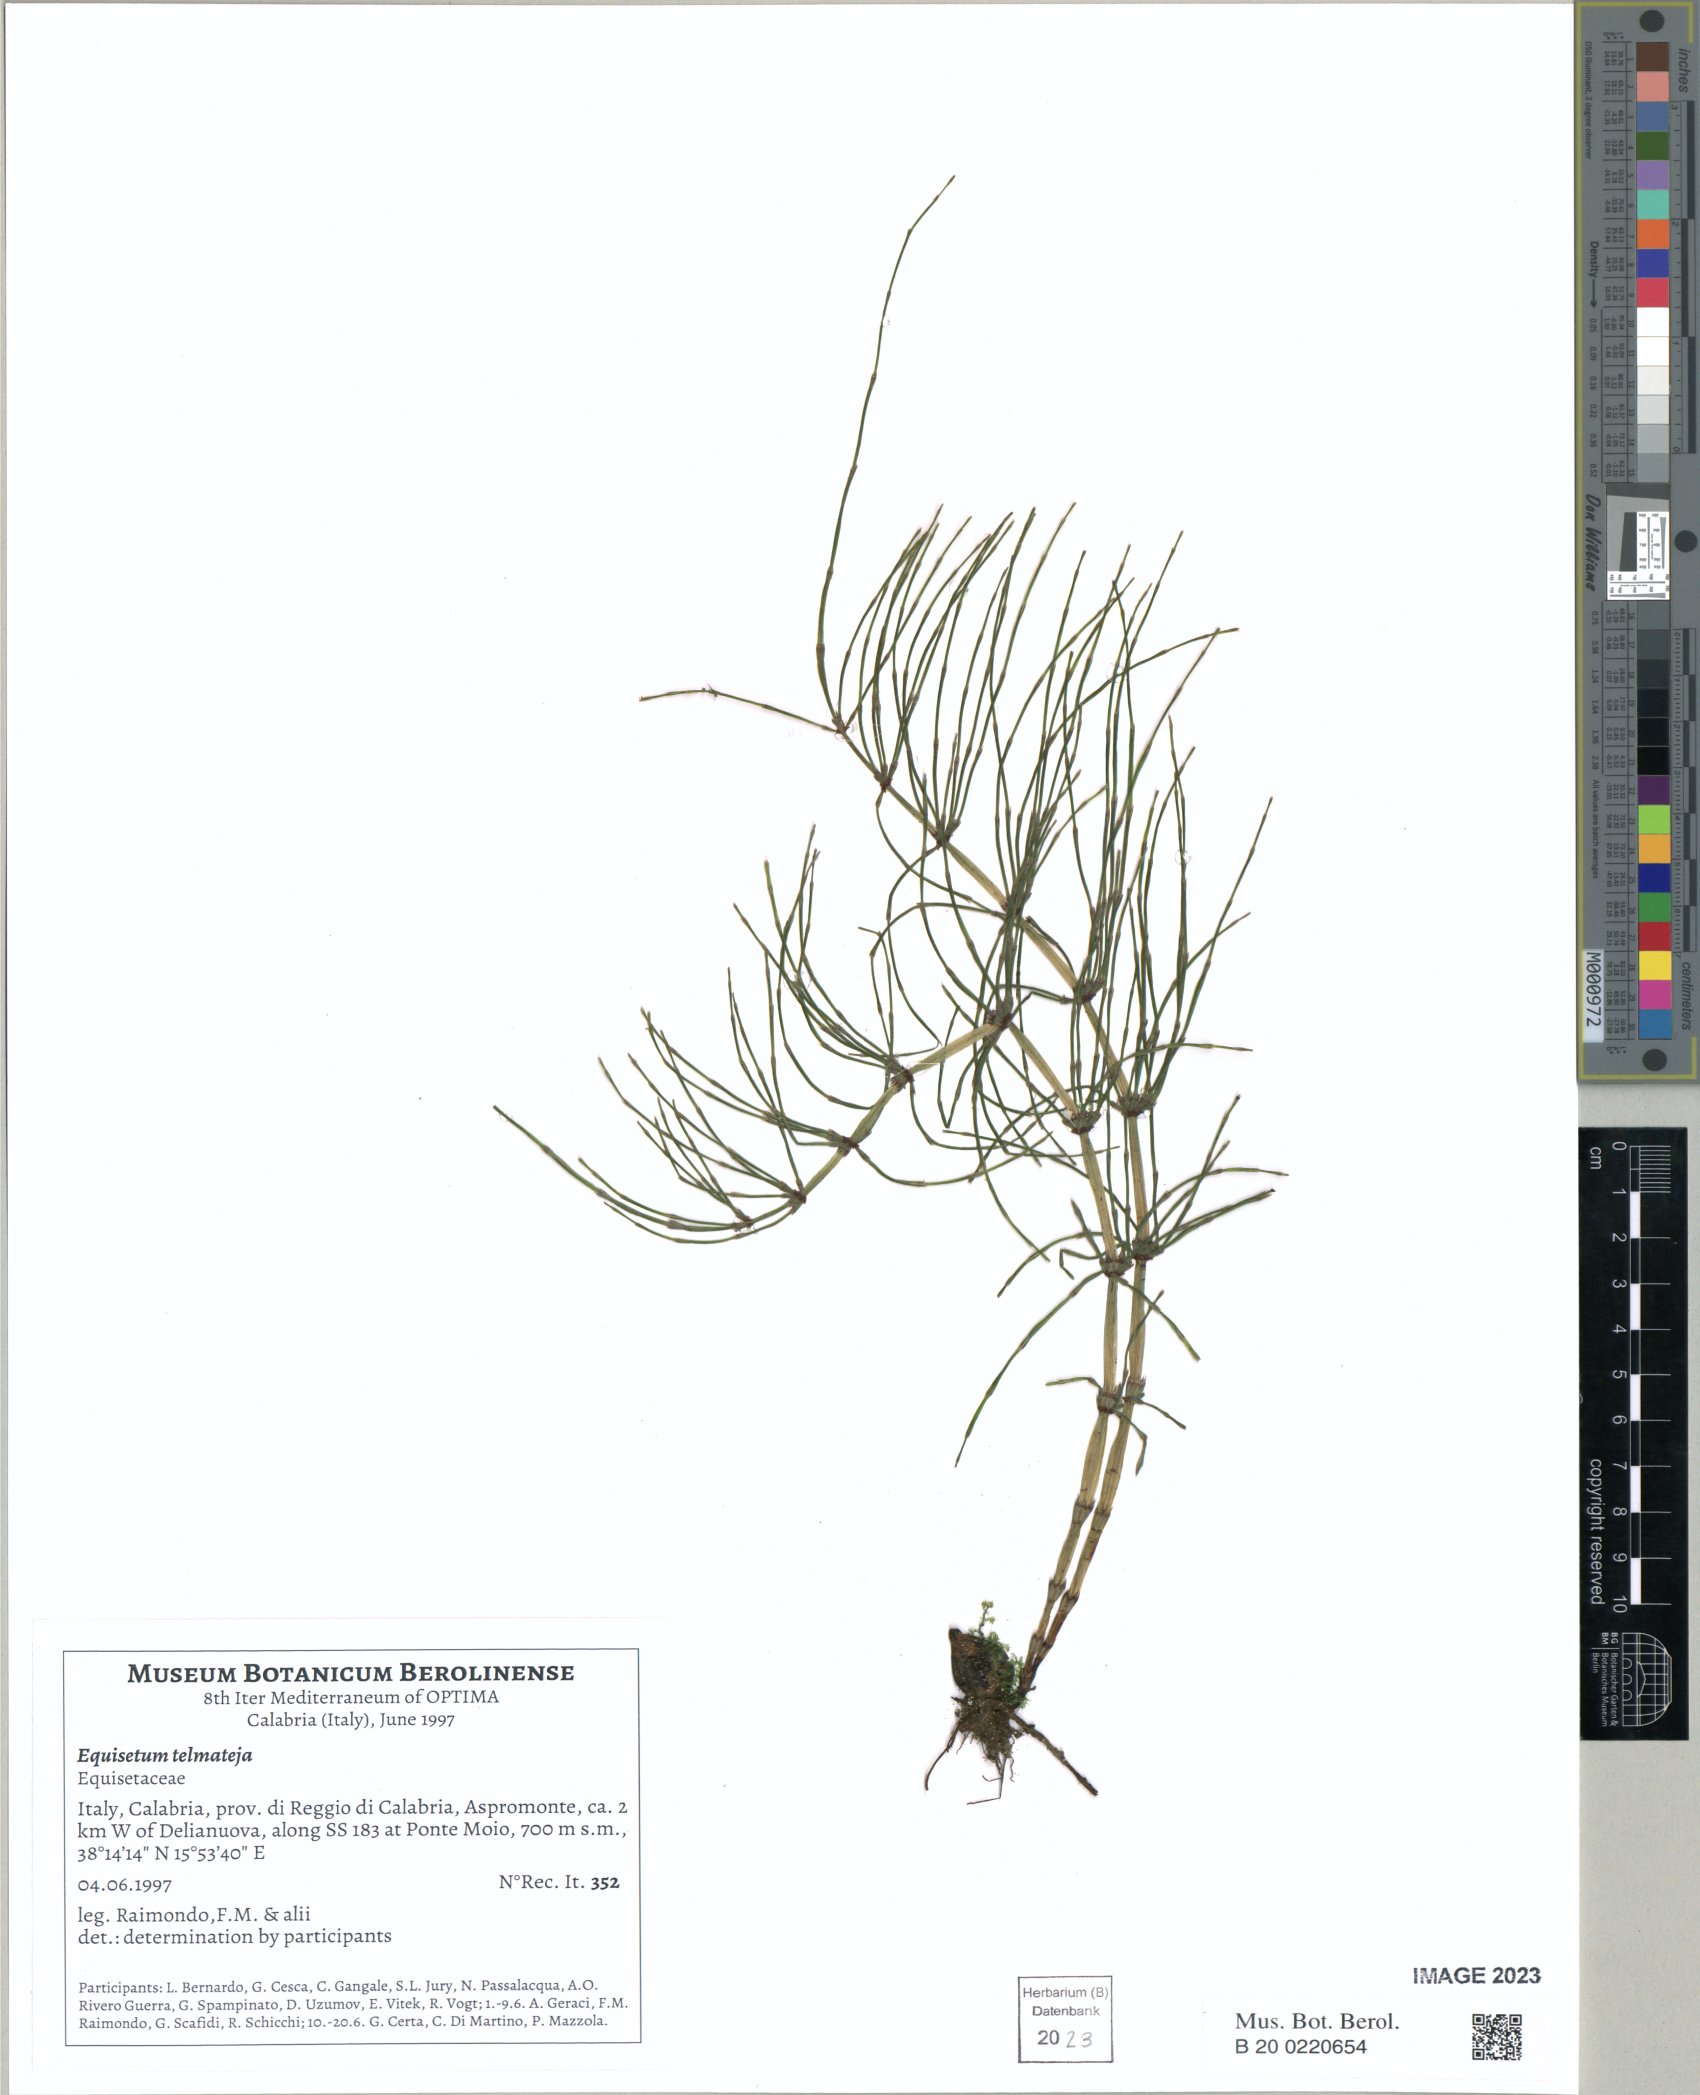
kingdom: Plantae
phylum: Tracheophyta
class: Polypodiopsida
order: Equisetales
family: Equisetaceae
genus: Equisetum
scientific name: Equisetum telmateia
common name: Great horsetail
